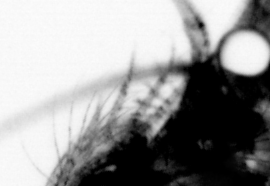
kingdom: Animalia
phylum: Annelida
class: Polychaeta
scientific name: Polychaeta
